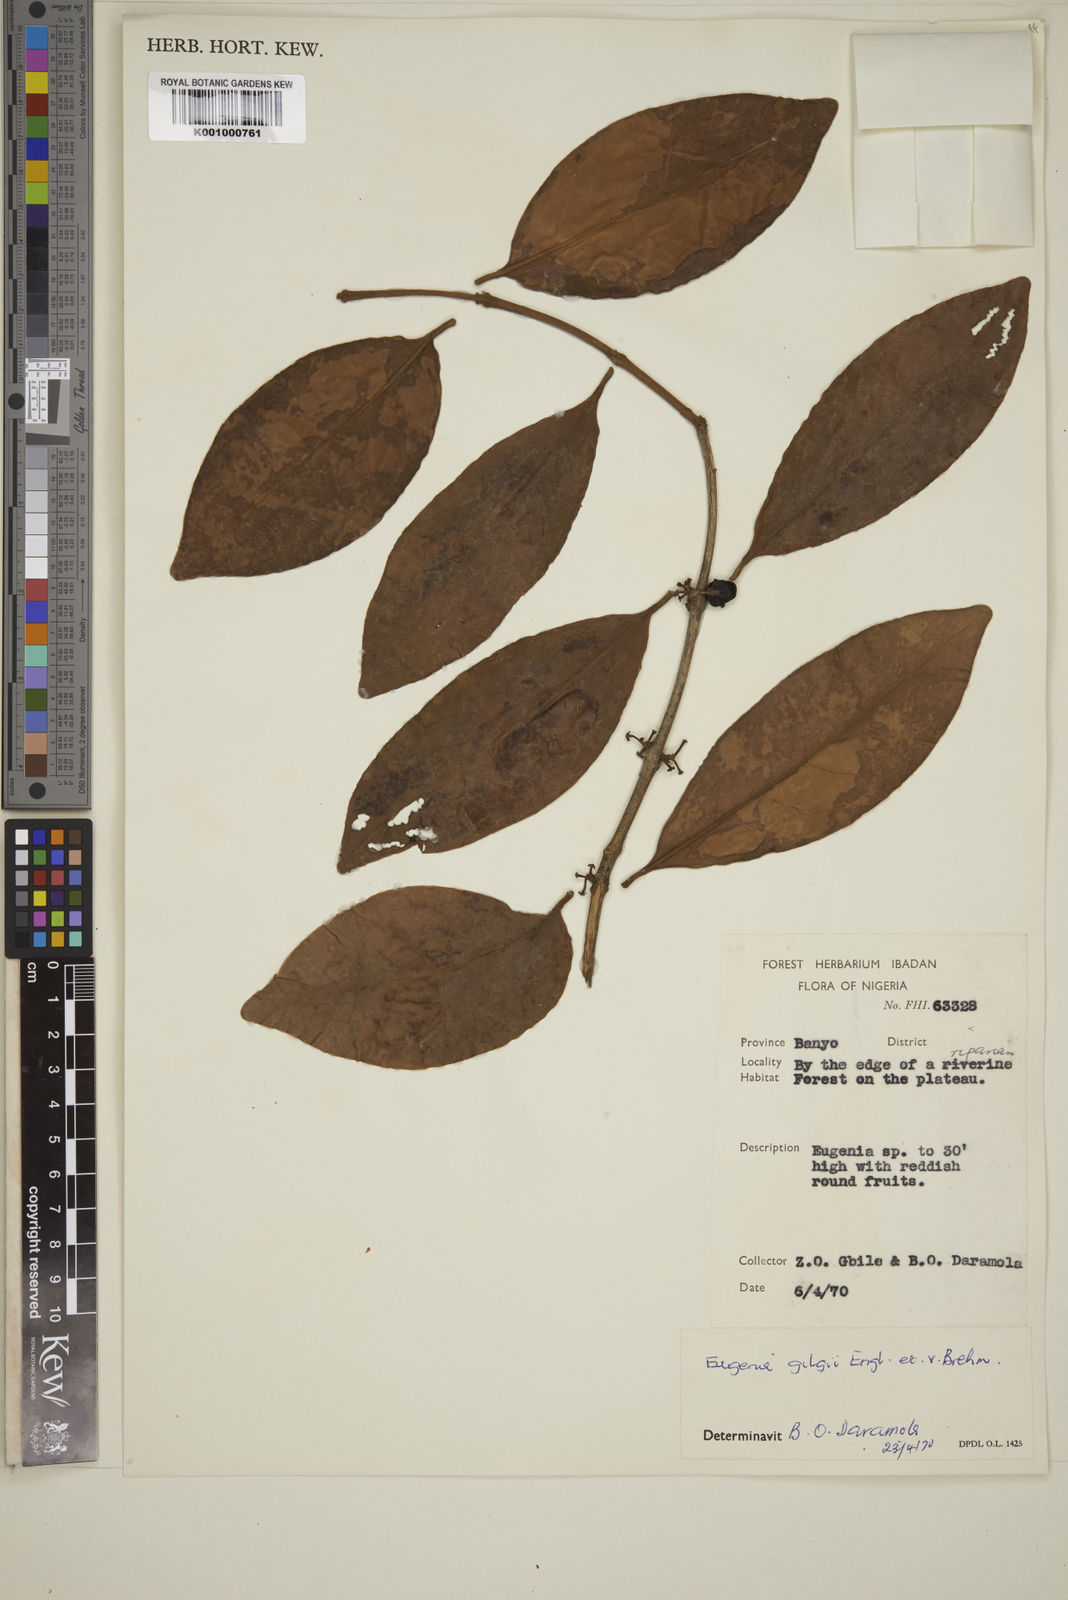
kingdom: Plantae
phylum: Tracheophyta
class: Magnoliopsida
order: Myrtales
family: Myrtaceae
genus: Eugenia
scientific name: Eugenia gilgii
